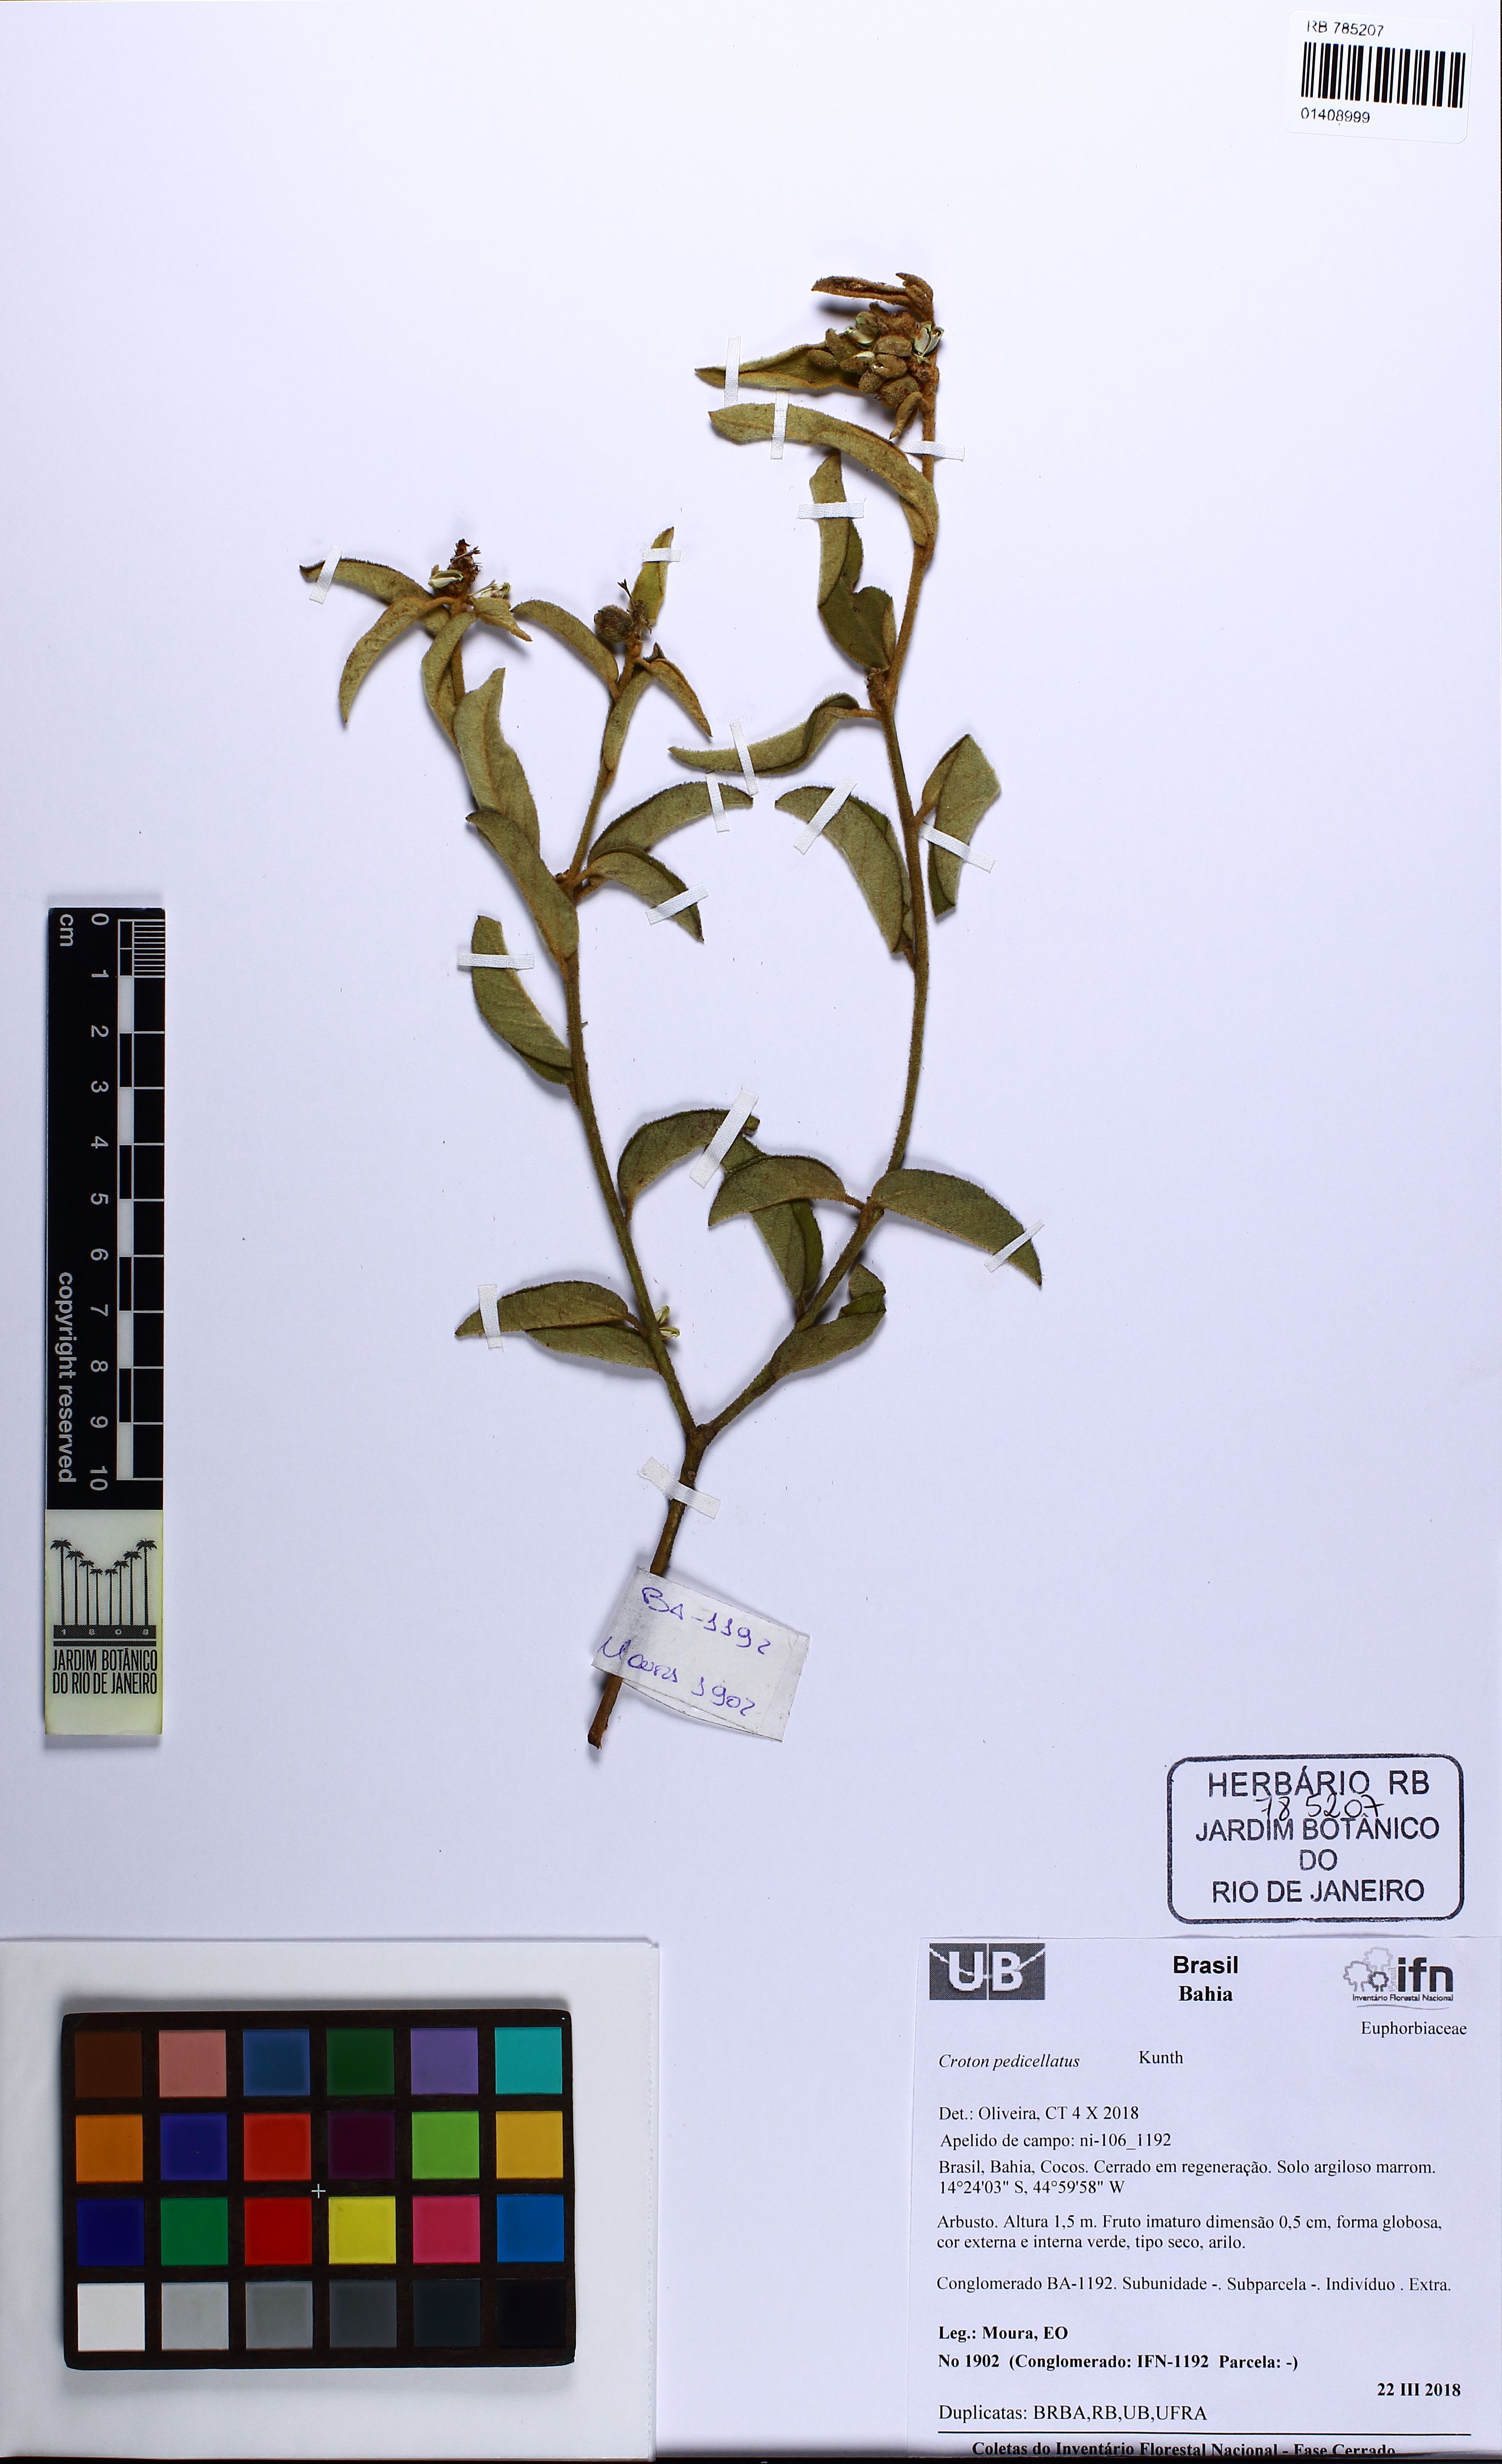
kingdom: Plantae
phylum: Tracheophyta
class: Magnoliopsida
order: Malpighiales
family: Euphorbiaceae
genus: Croton
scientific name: Croton campestris
